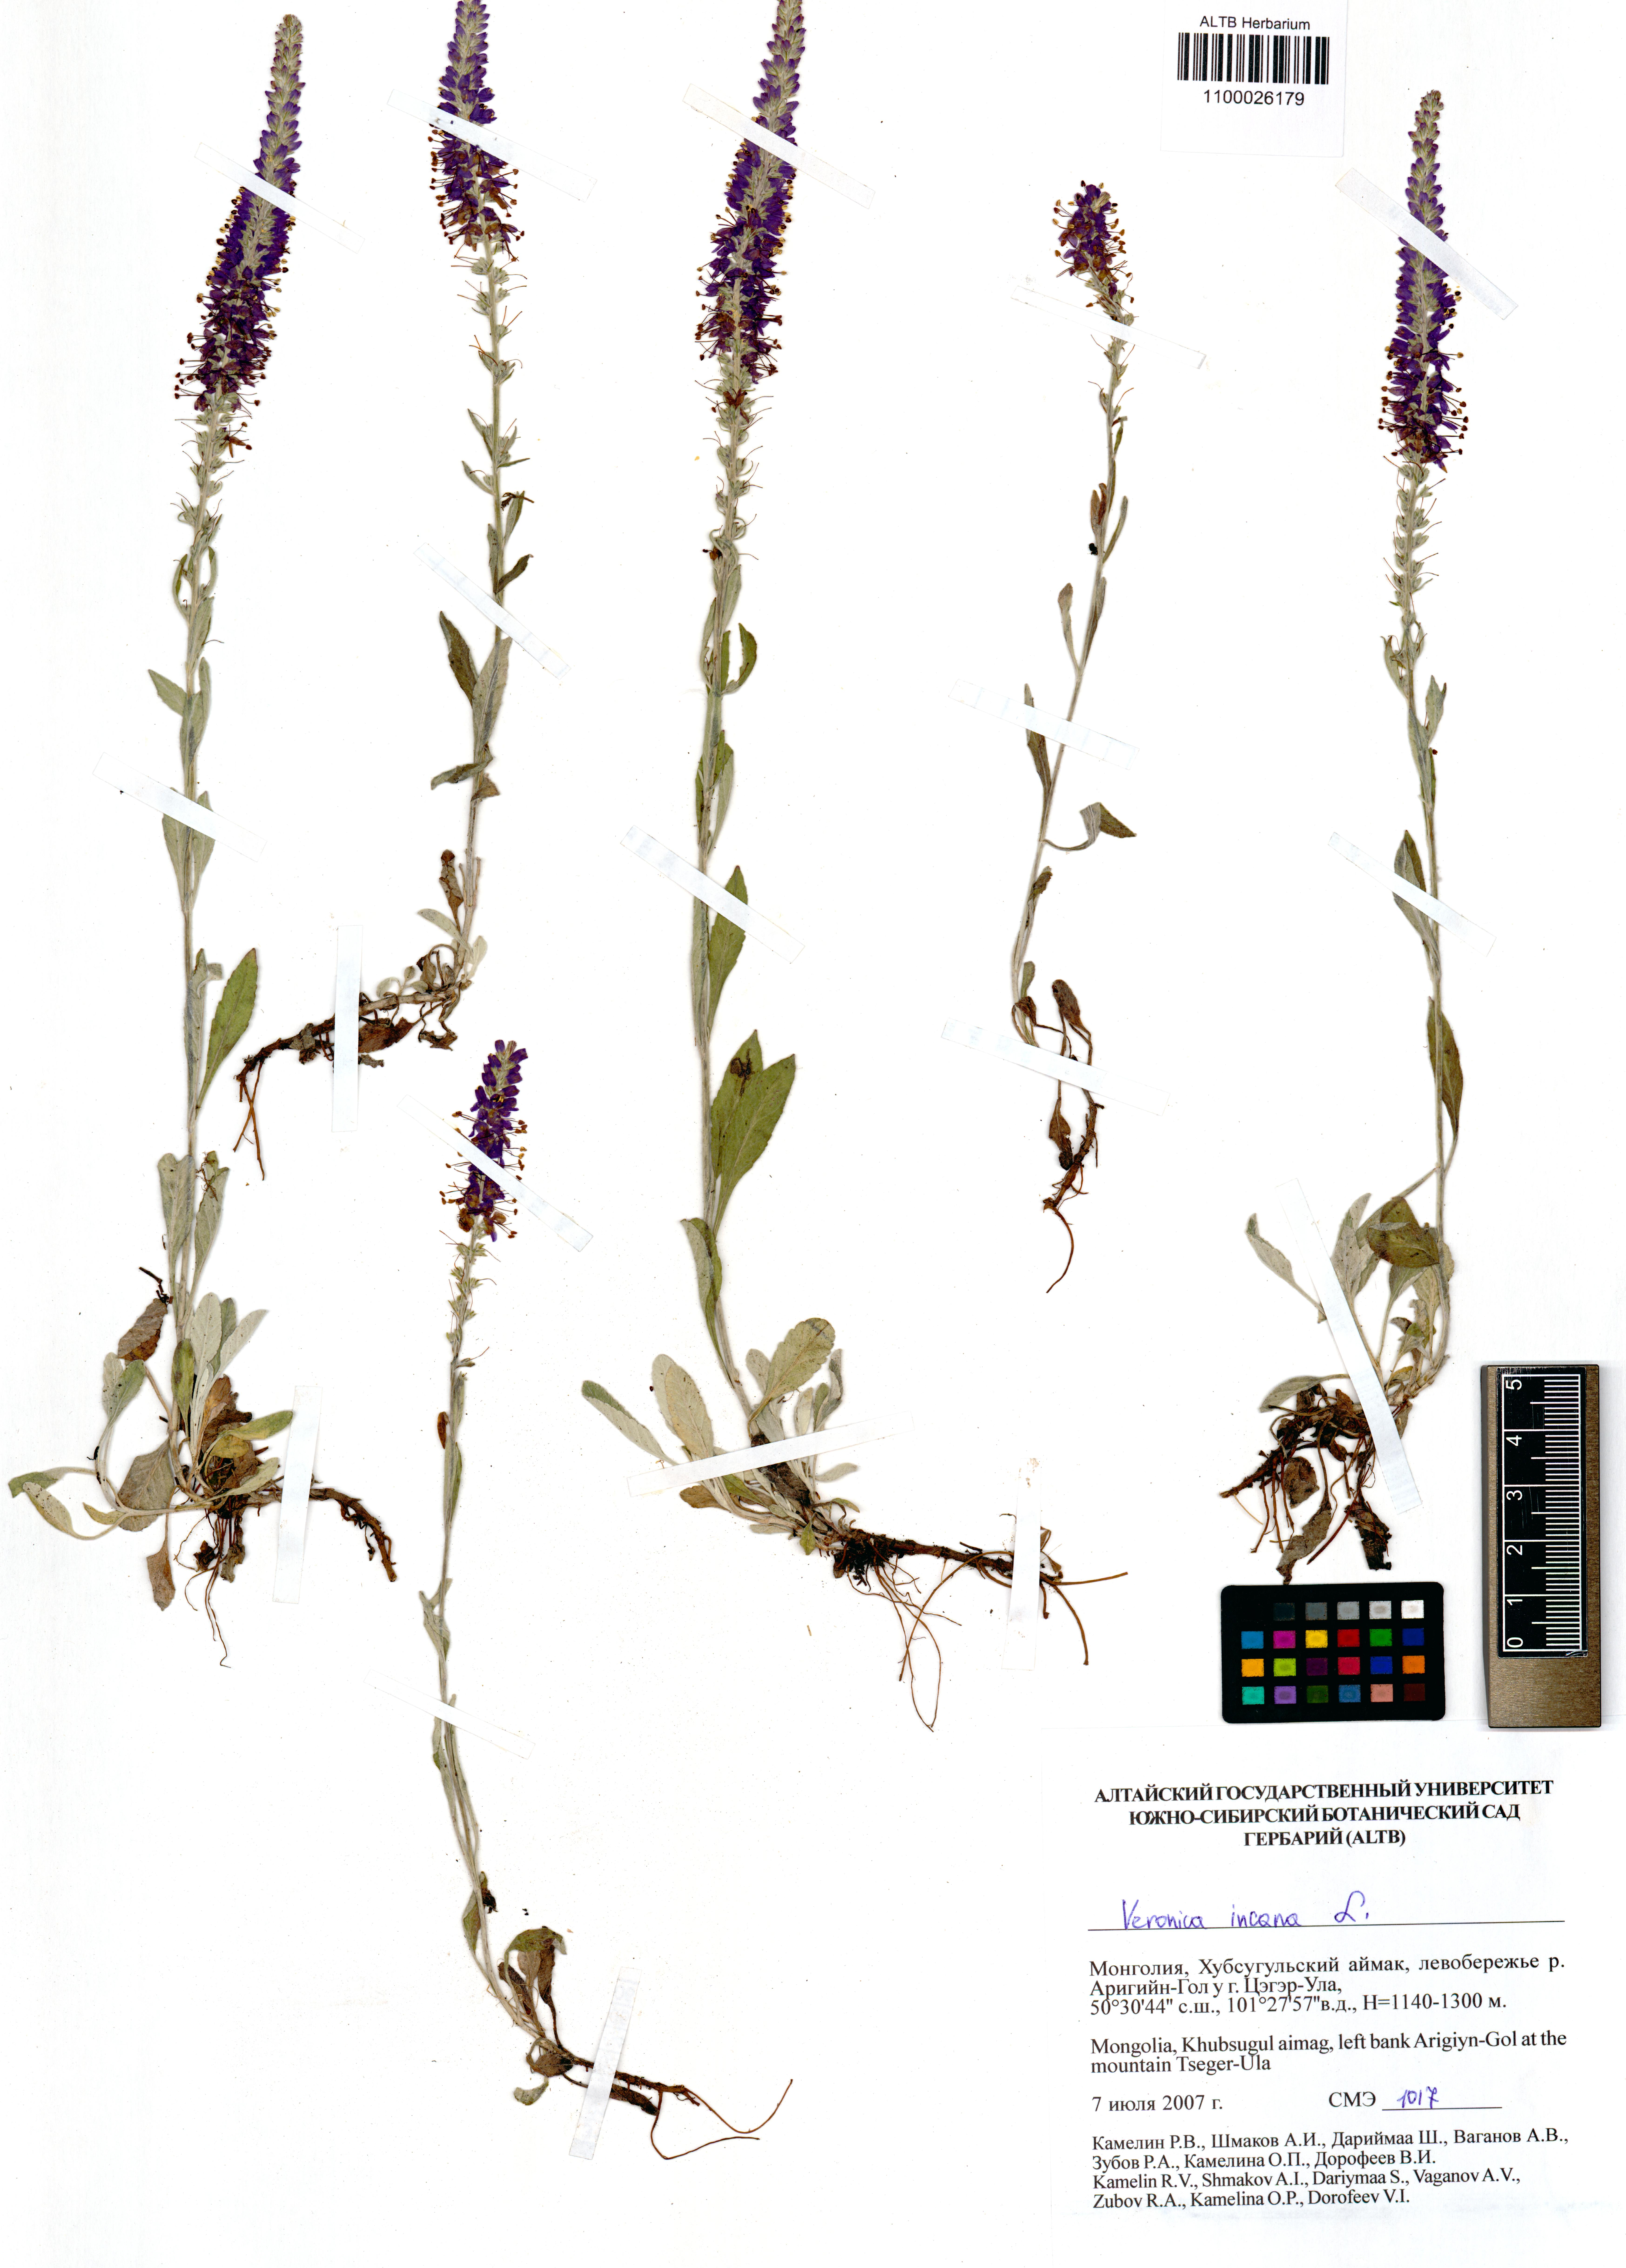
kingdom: Plantae
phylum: Tracheophyta
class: Magnoliopsida
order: Lamiales
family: Plantaginaceae
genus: Veronica
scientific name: Veronica incana
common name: Silver speedwell
